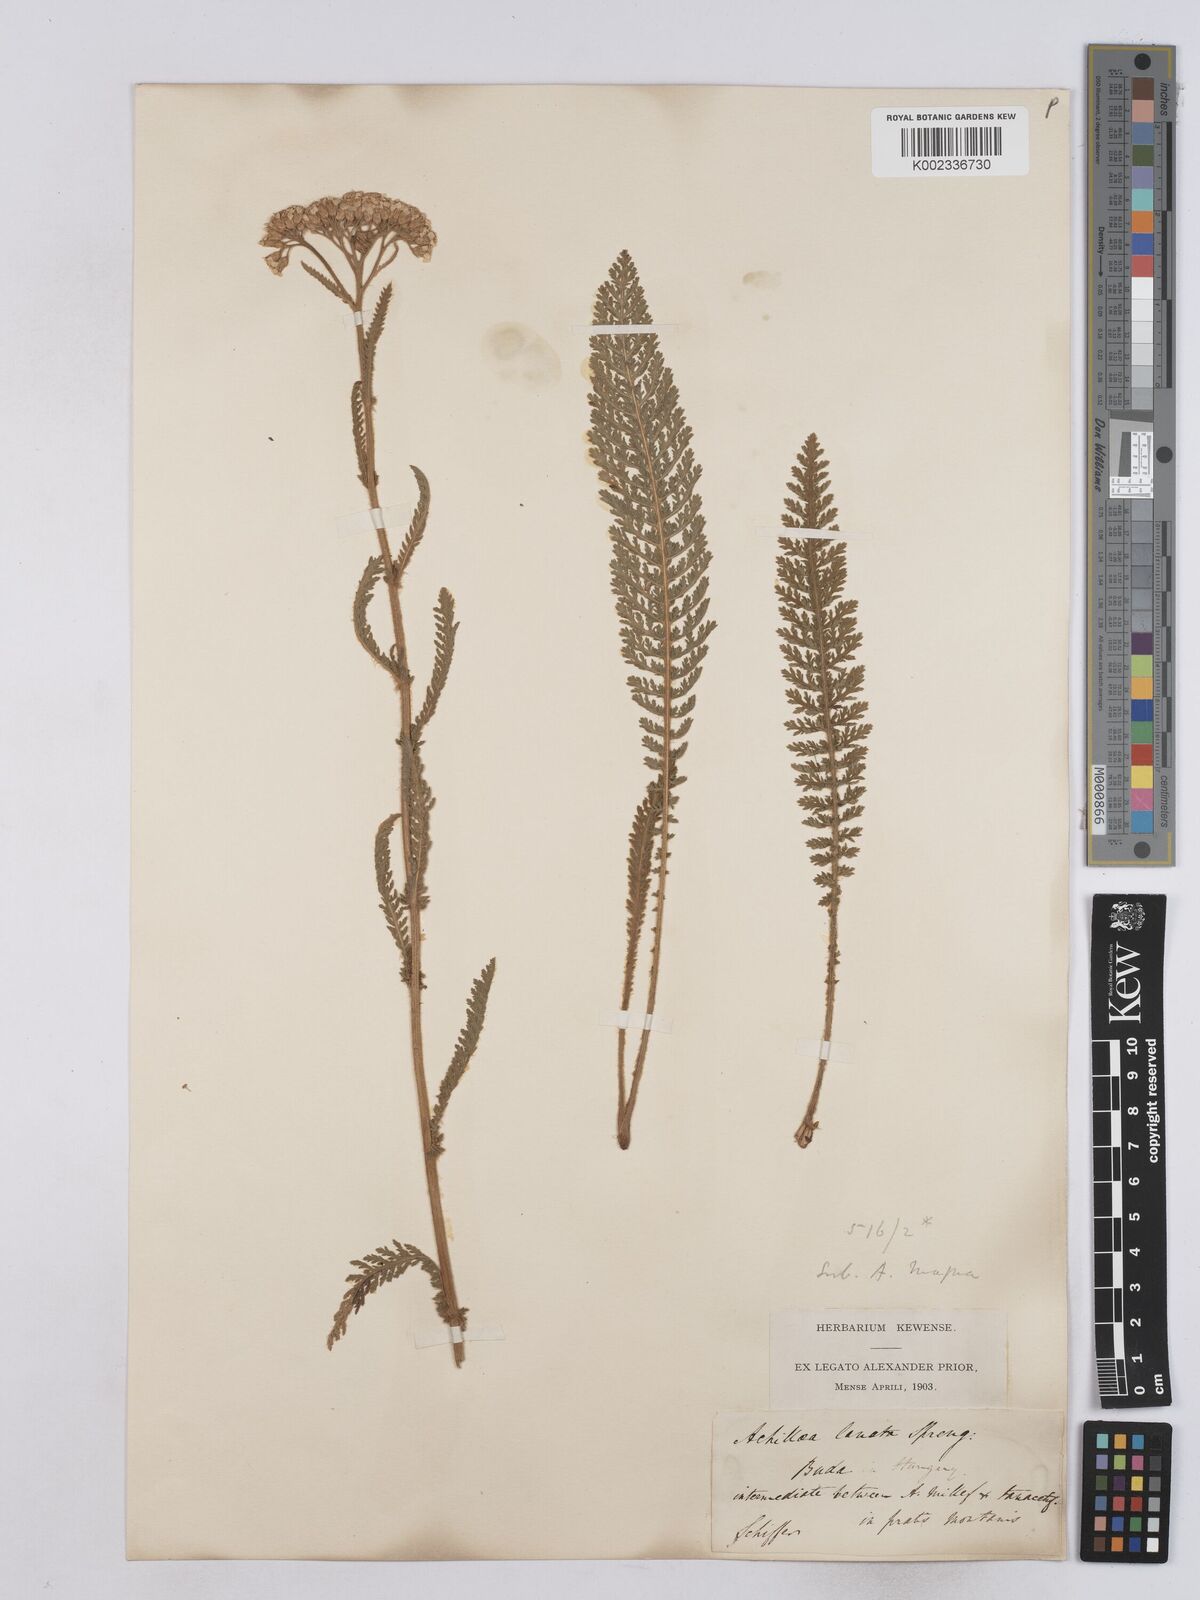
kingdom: Plantae
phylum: Tracheophyta
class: Magnoliopsida
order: Asterales
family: Asteraceae
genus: Achillea
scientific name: Achillea collina
